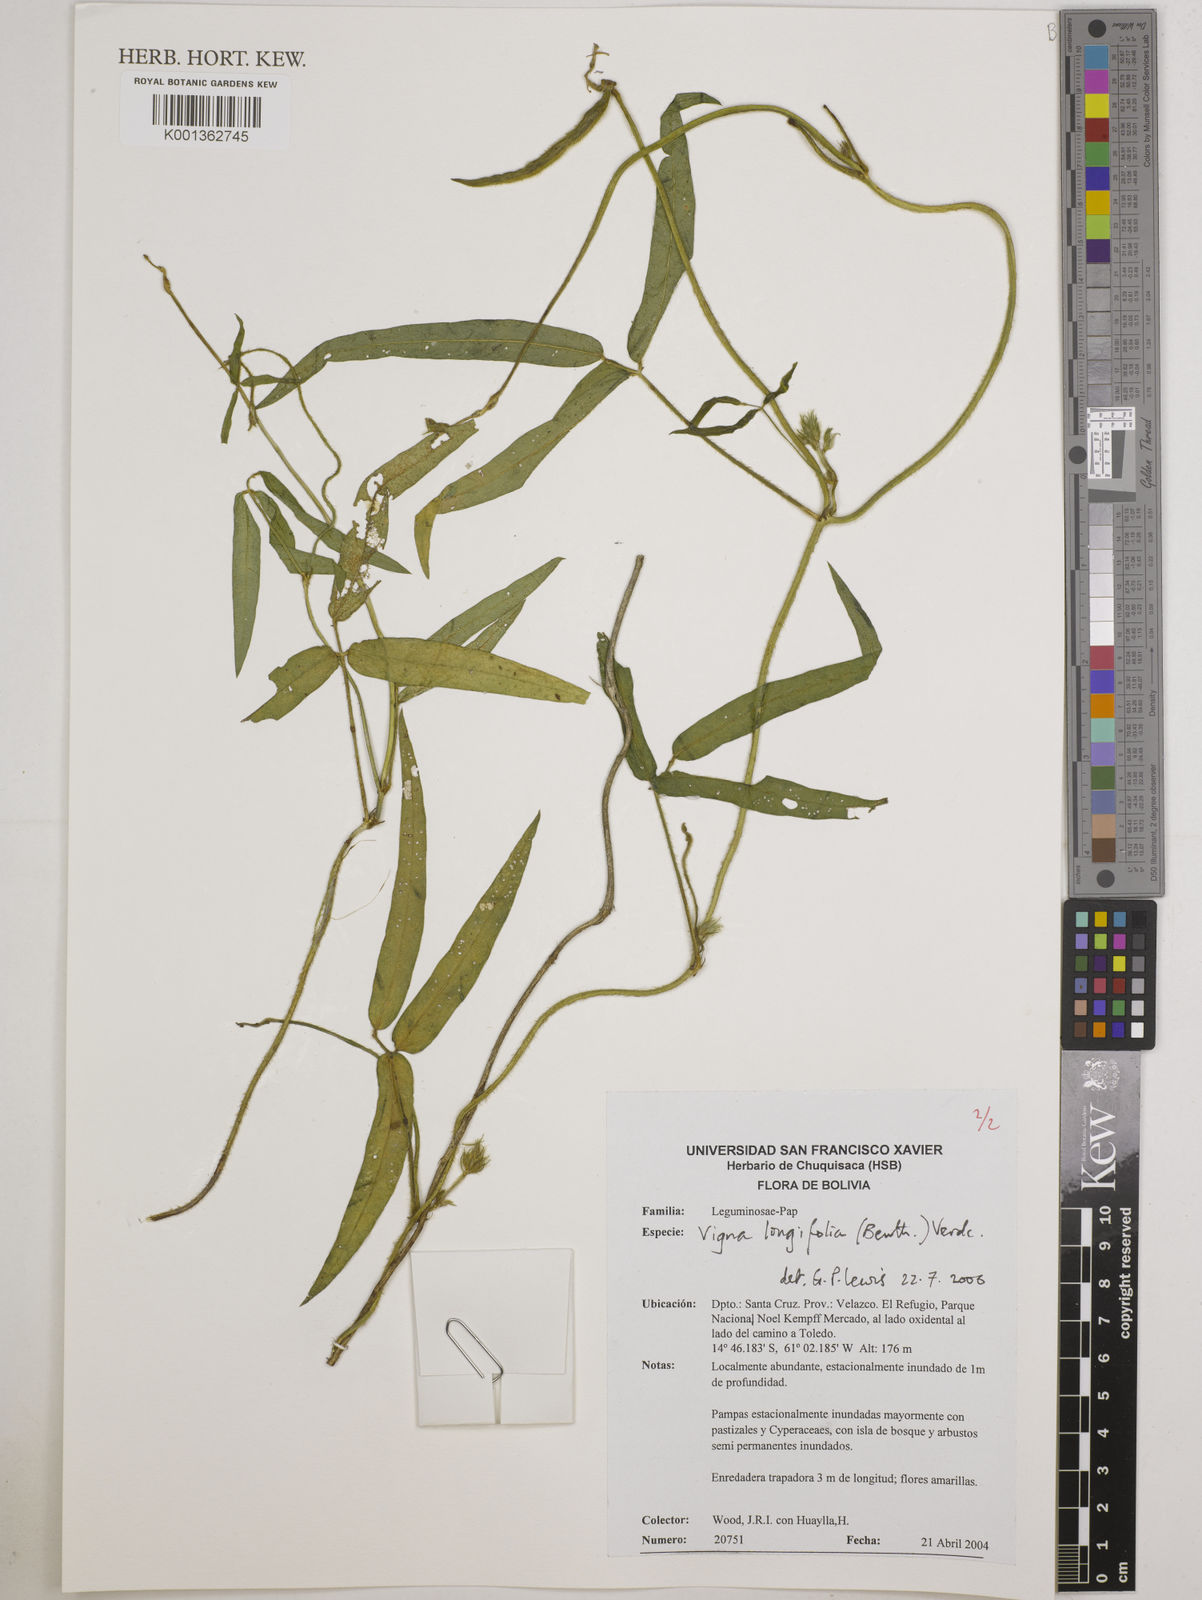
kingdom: Plantae
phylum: Tracheophyta
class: Magnoliopsida
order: Fabales
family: Fabaceae
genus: Vigna
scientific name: Vigna longifolia
